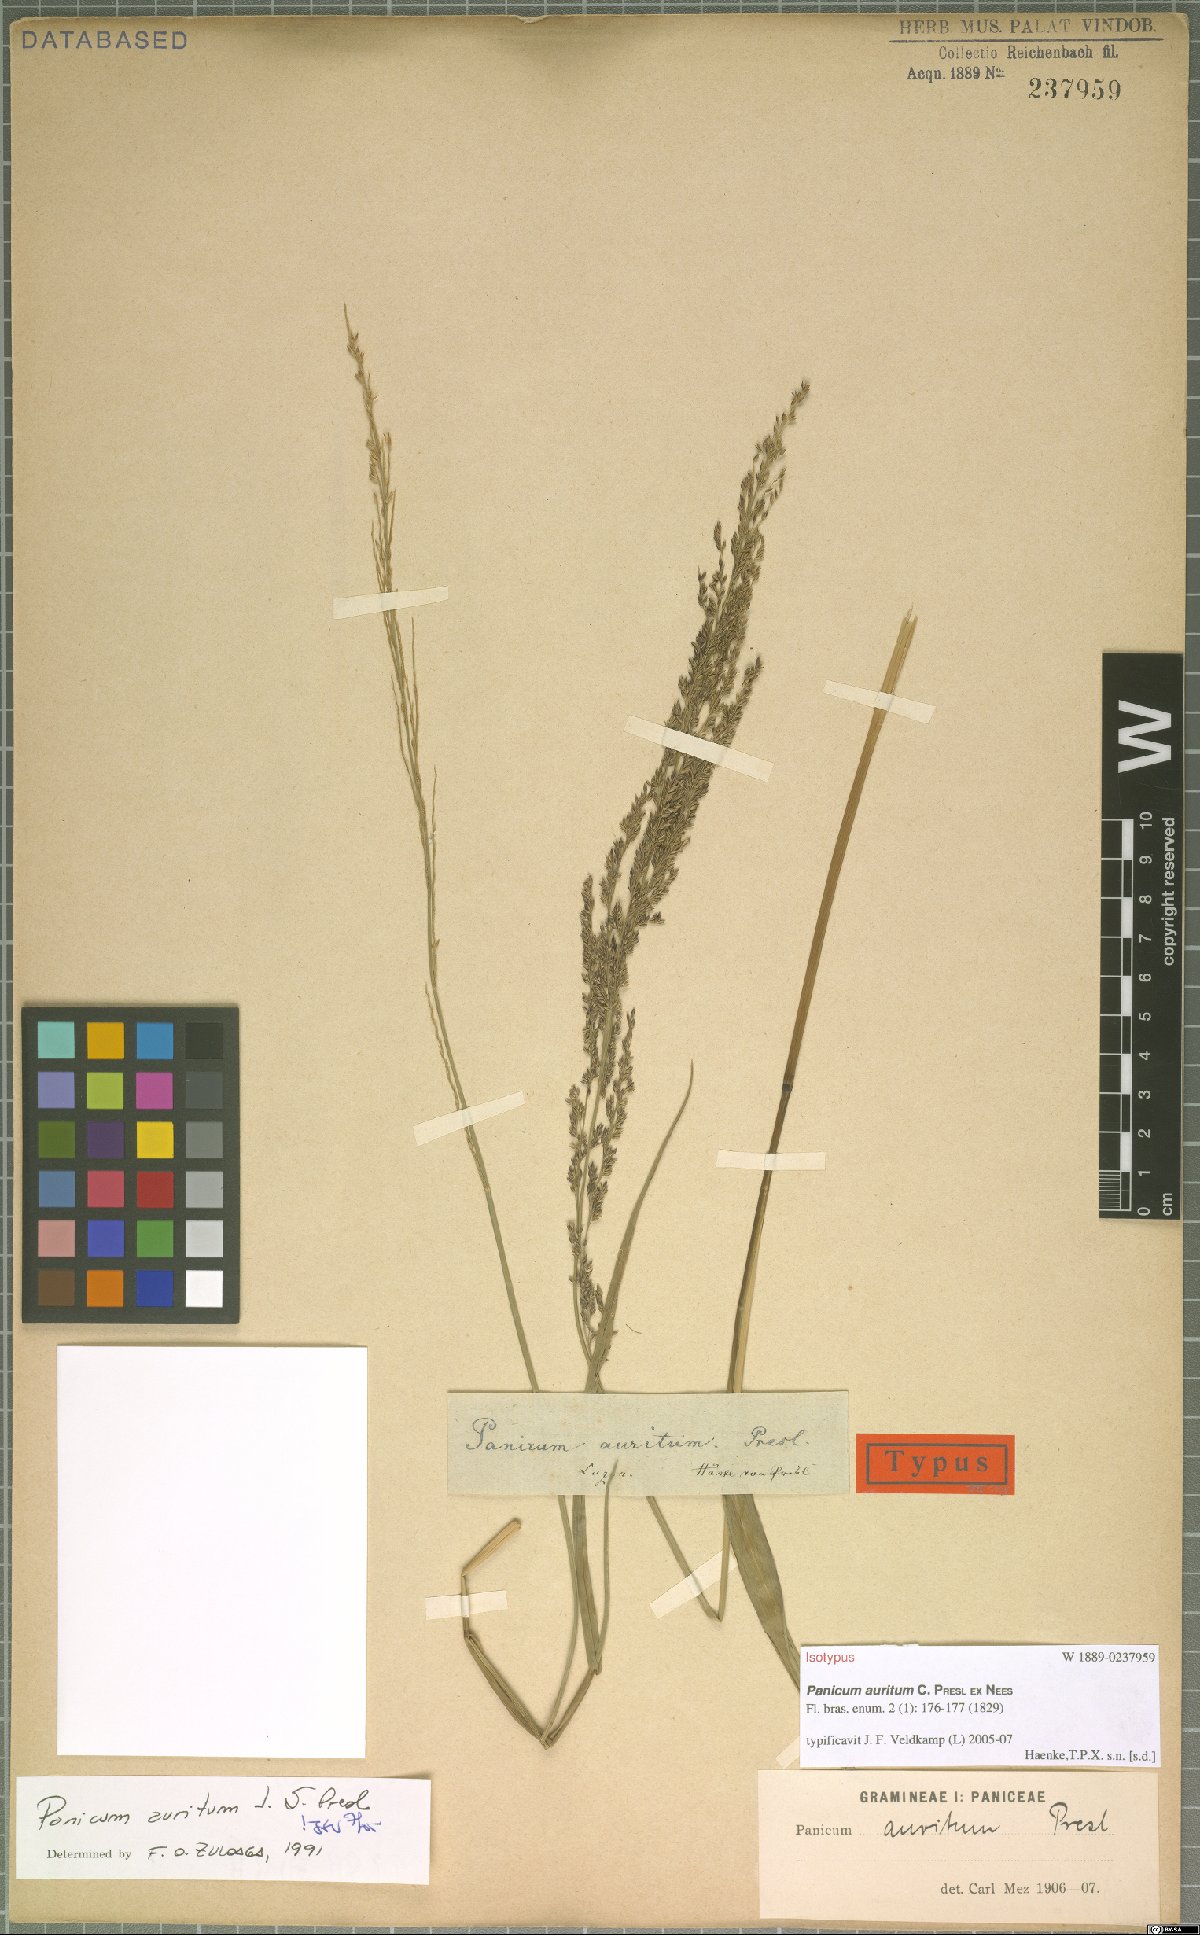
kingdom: Plantae
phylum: Tracheophyta
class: Liliopsida
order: Poales
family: Poaceae
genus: Hymenachne
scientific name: Hymenachne aurita
